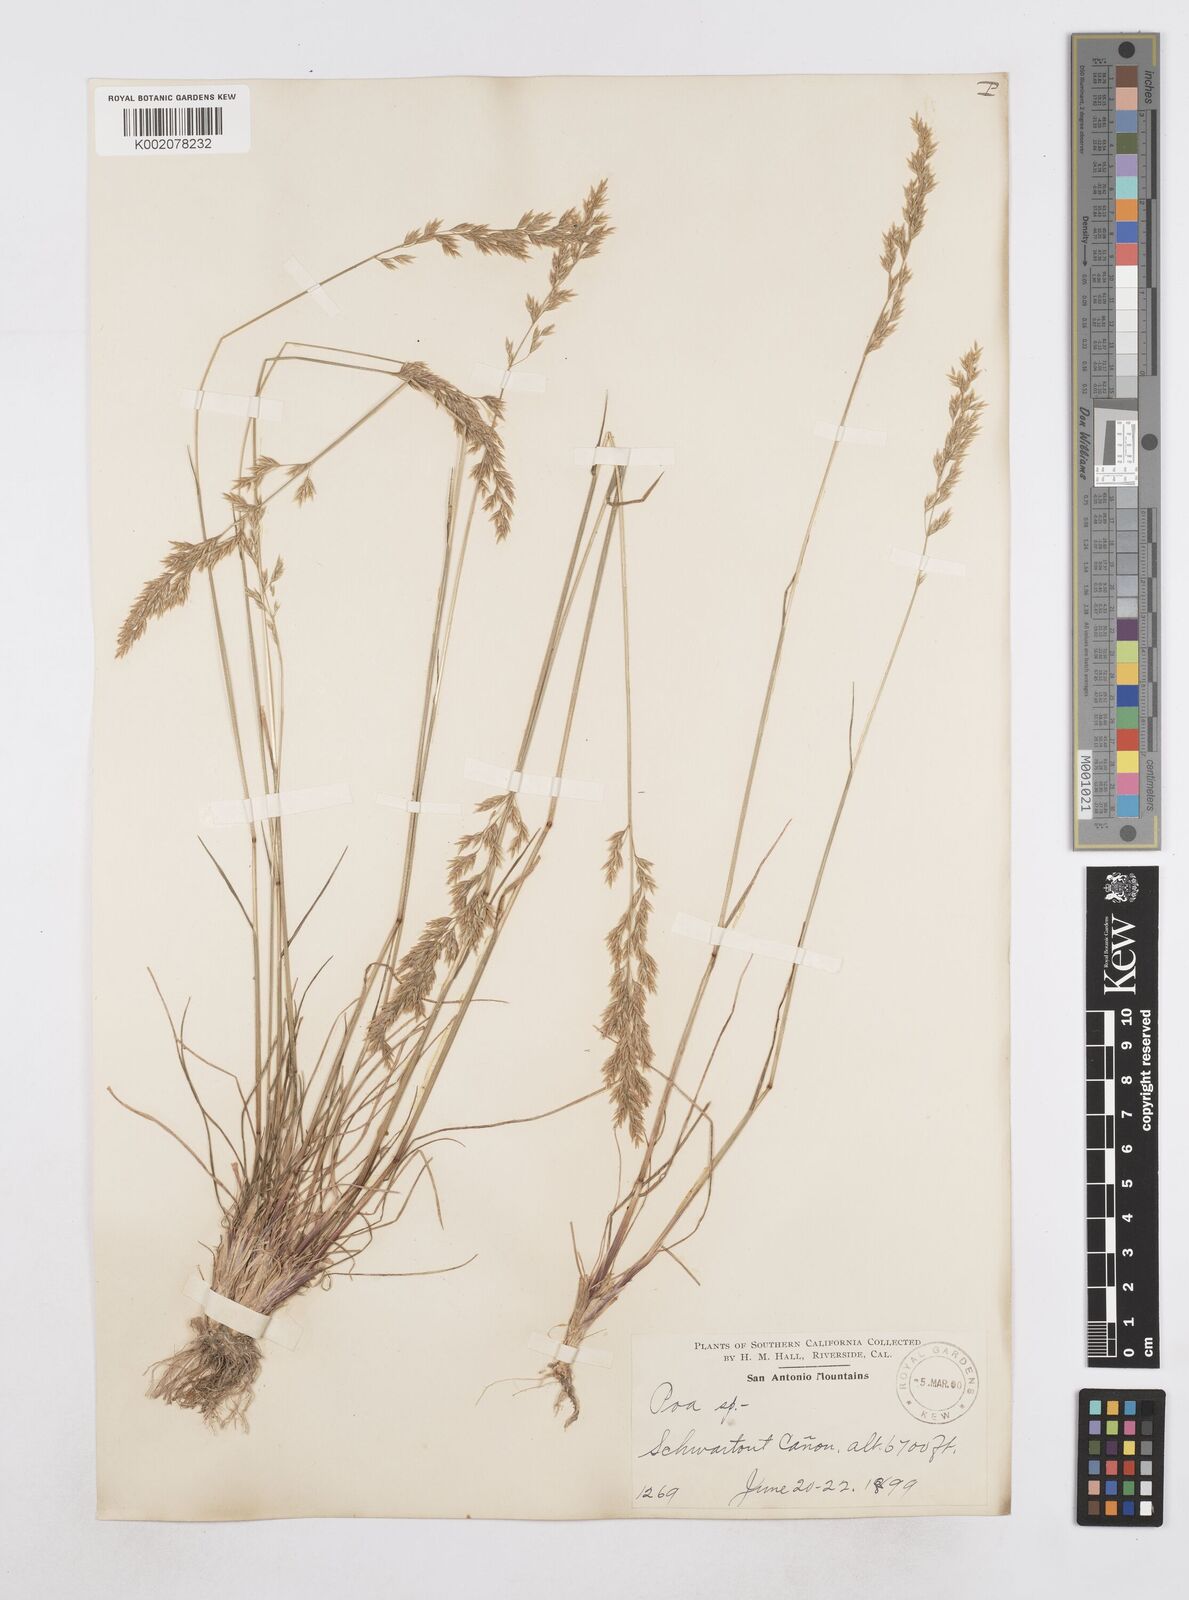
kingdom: Plantae
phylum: Tracheophyta
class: Liliopsida
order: Poales
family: Poaceae
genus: Poa
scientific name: Poa
